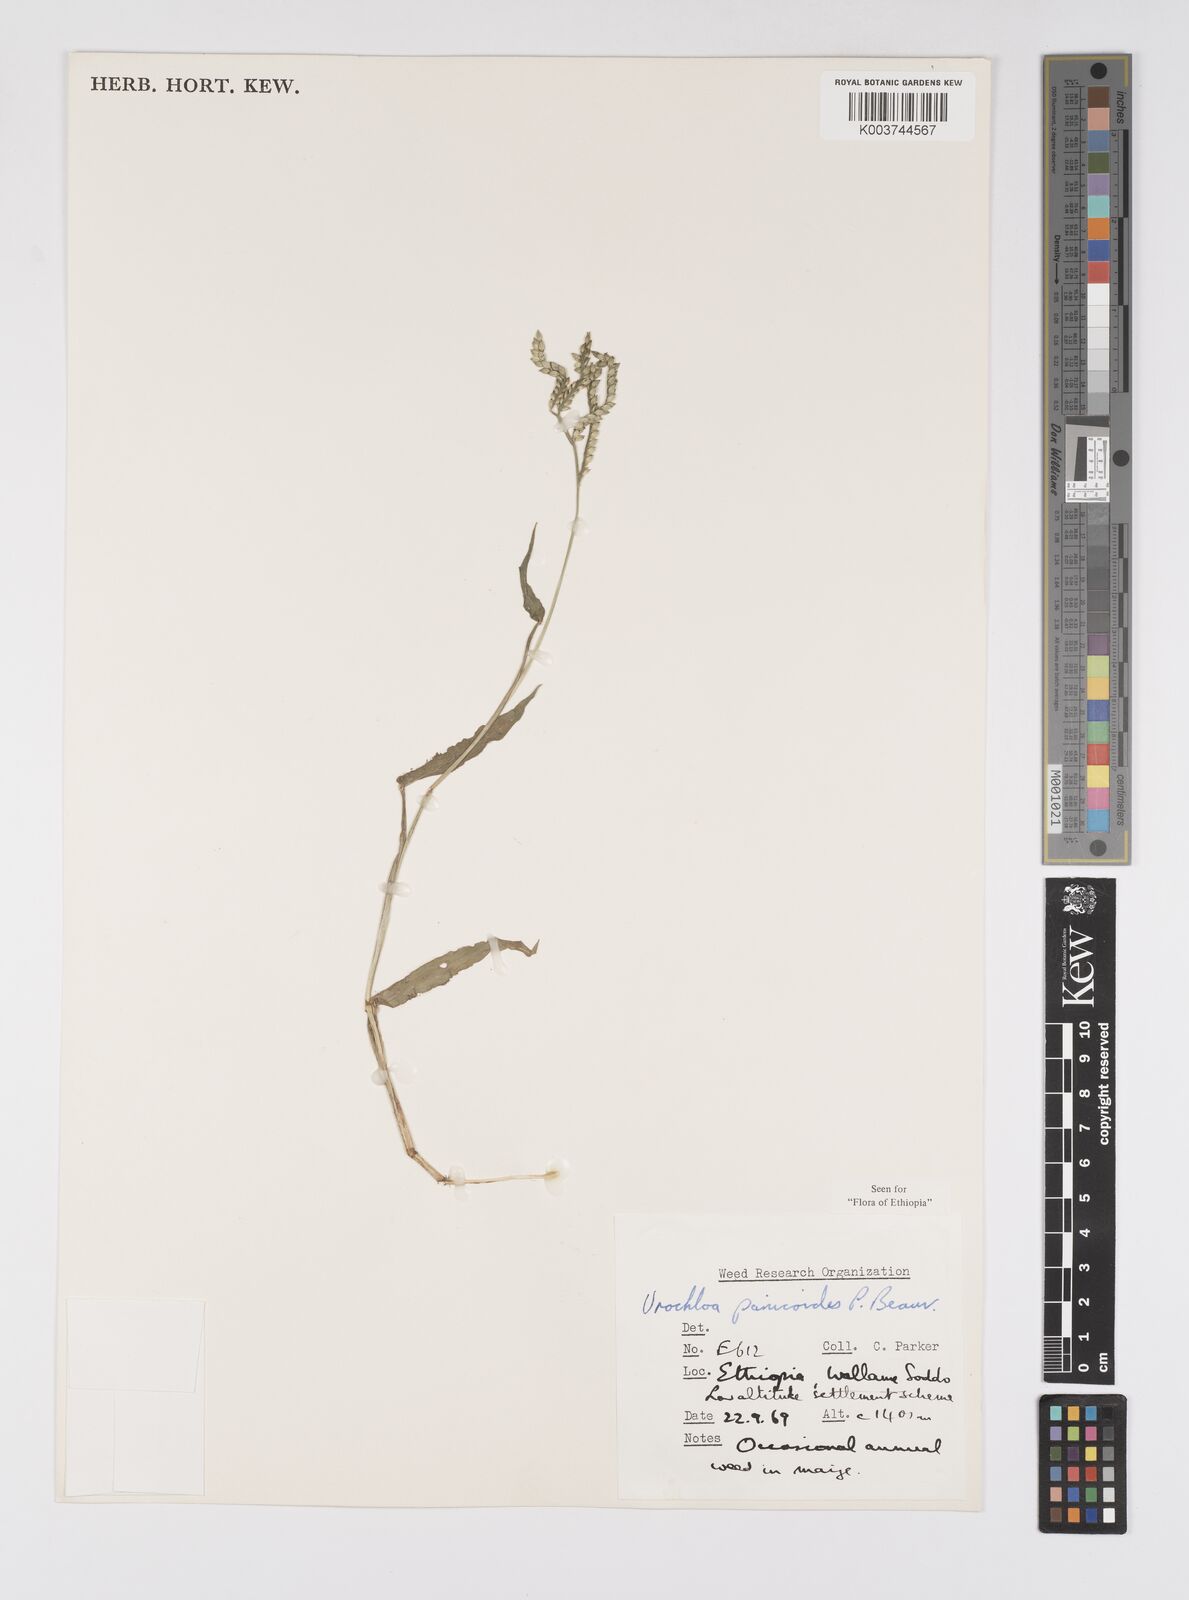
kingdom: Plantae
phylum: Tracheophyta
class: Liliopsida
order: Poales
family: Poaceae
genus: Urochloa
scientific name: Urochloa panicoides
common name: Sharp-flowered signal-grass
